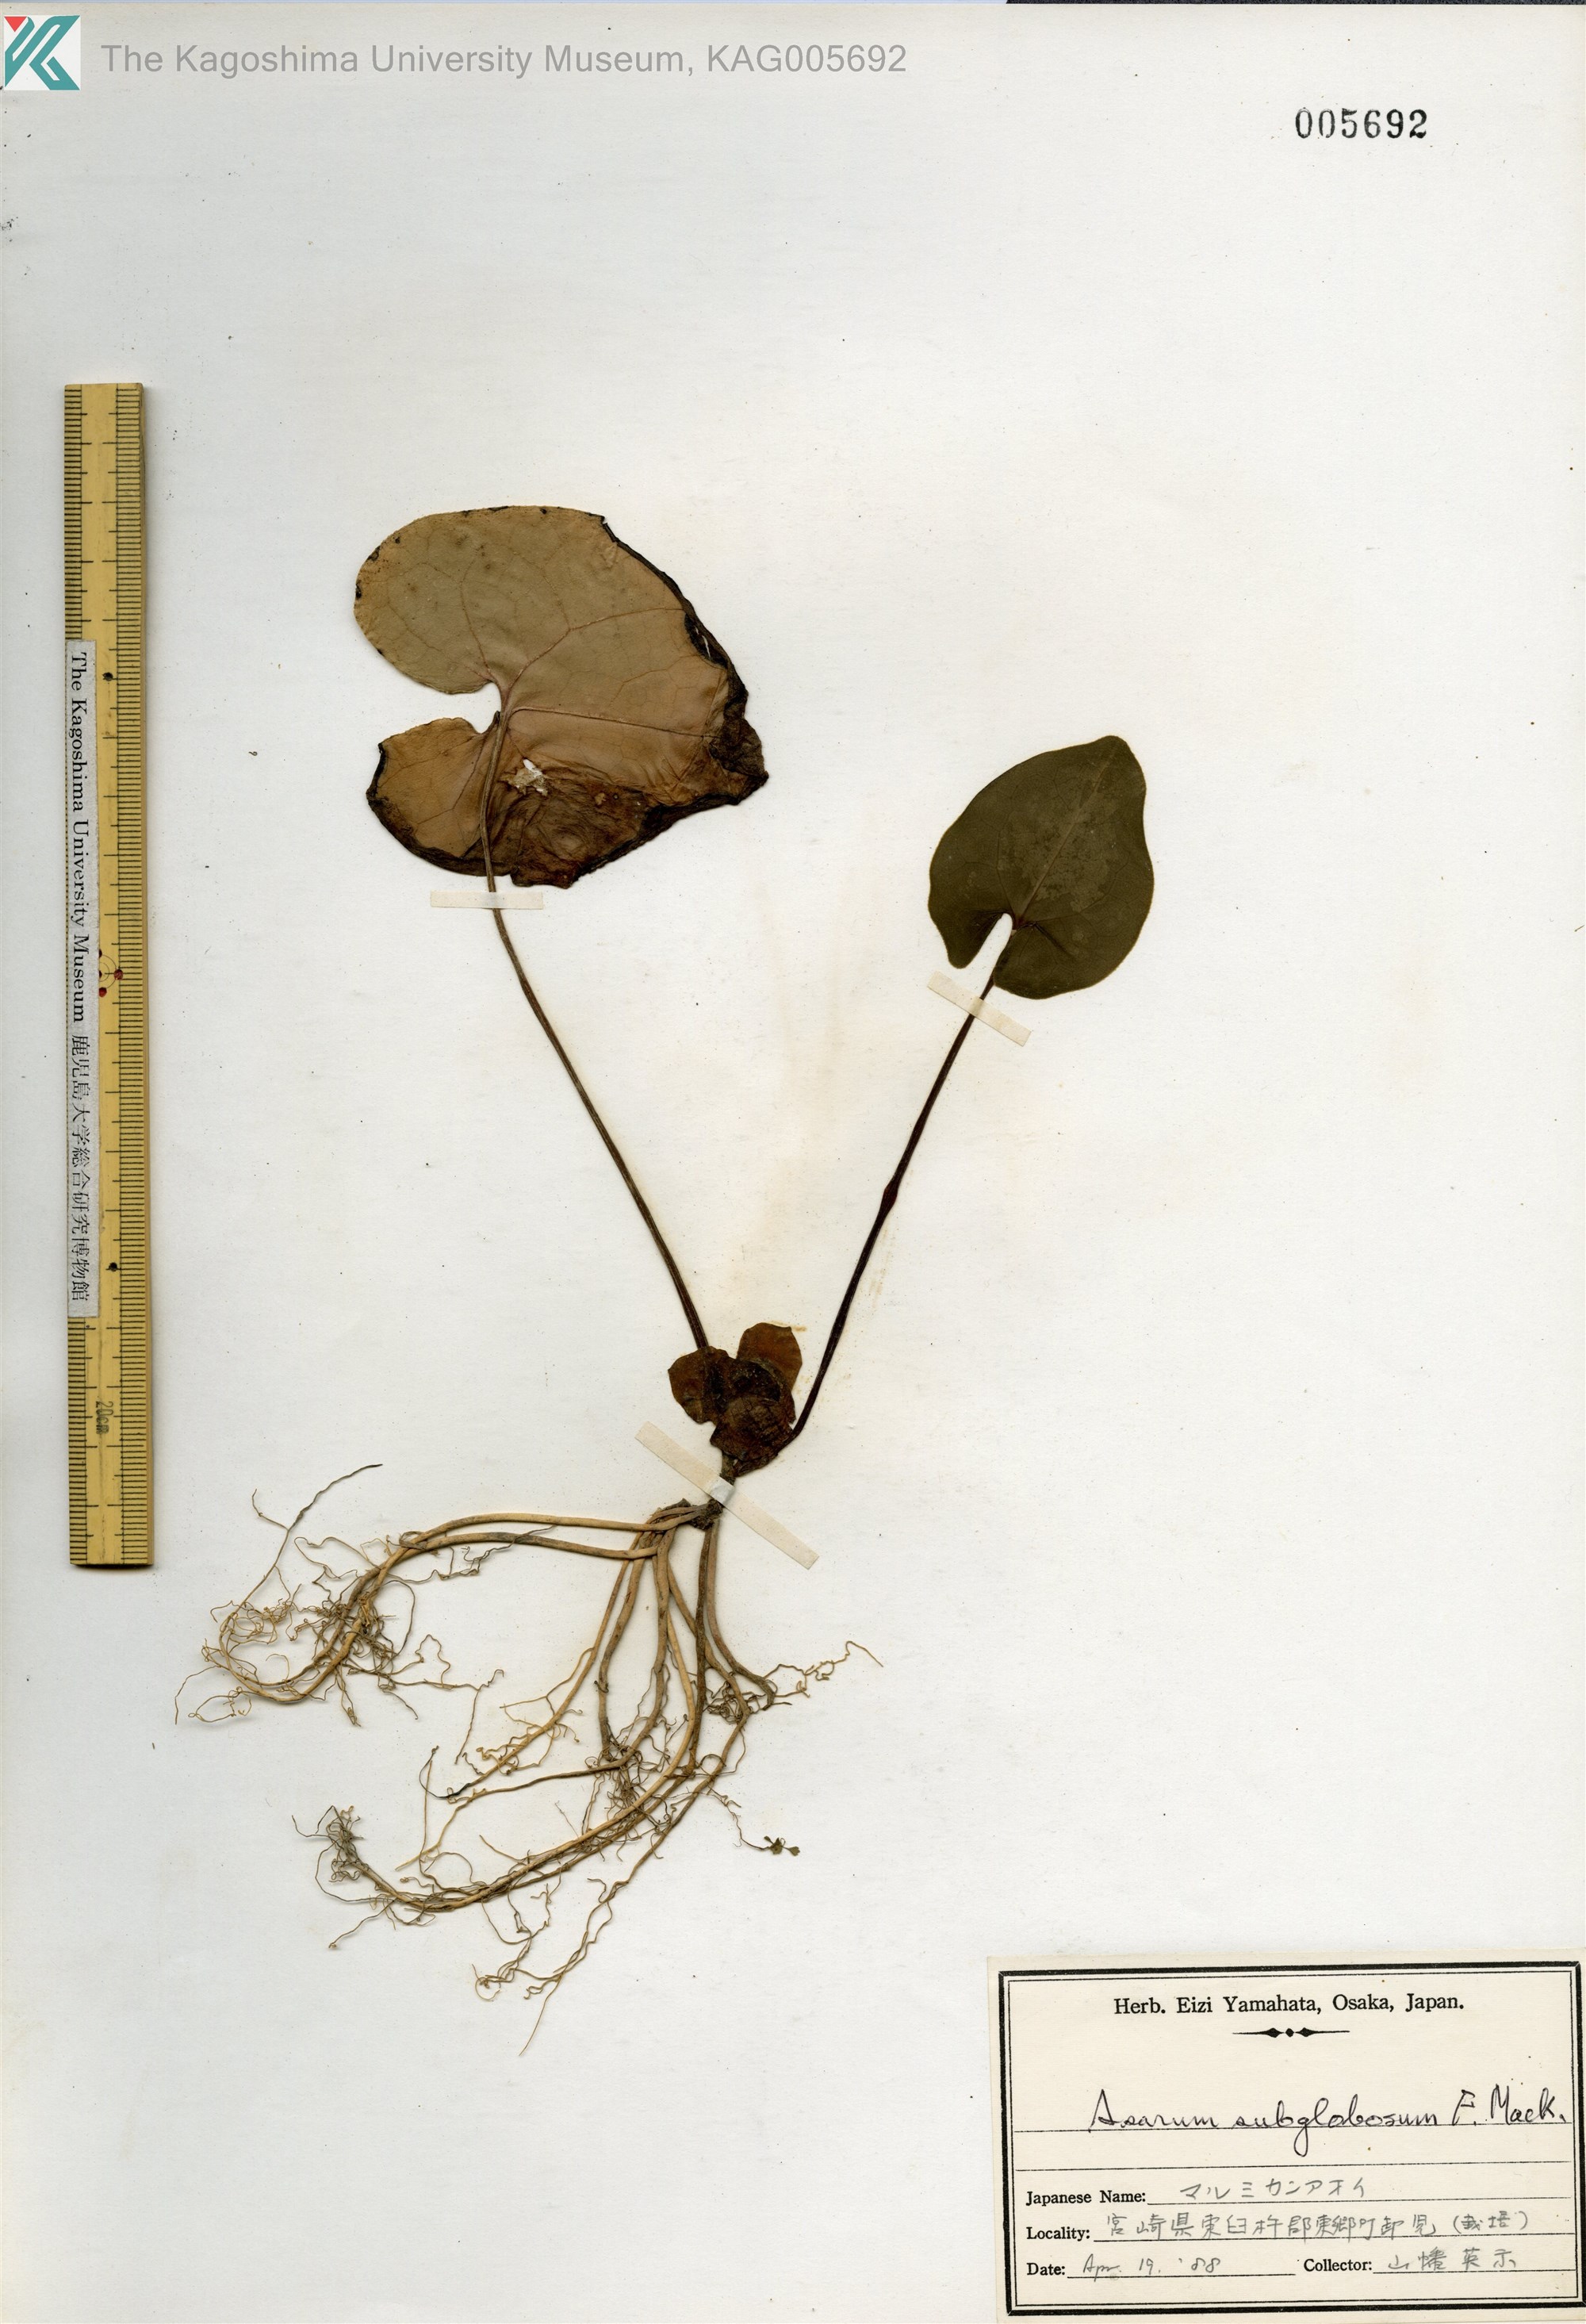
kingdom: Plantae
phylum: Tracheophyta
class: Magnoliopsida
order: Piperales
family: Aristolochiaceae
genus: Asarum
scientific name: Asarum subglobosum
